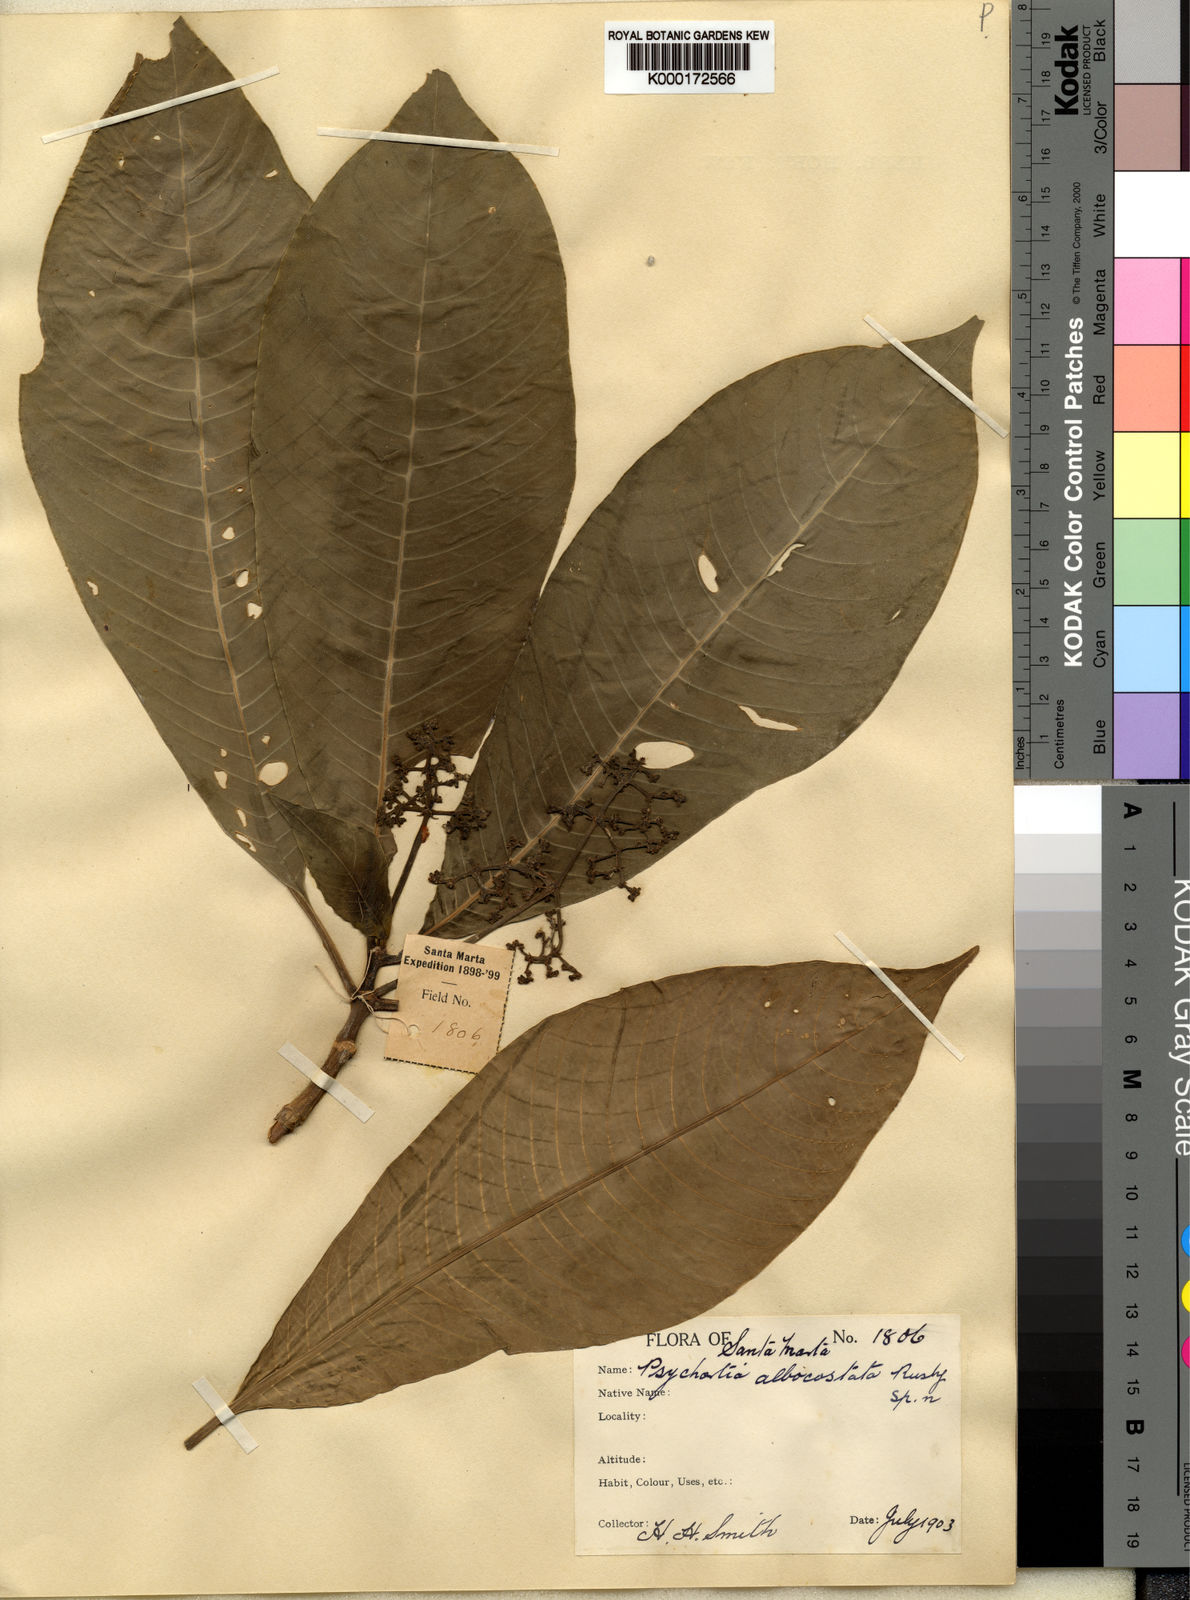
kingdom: Plantae
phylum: Tracheophyta
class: Magnoliopsida
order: Gentianales
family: Rubiaceae
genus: Notopleura
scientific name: Notopleura macrophylla
